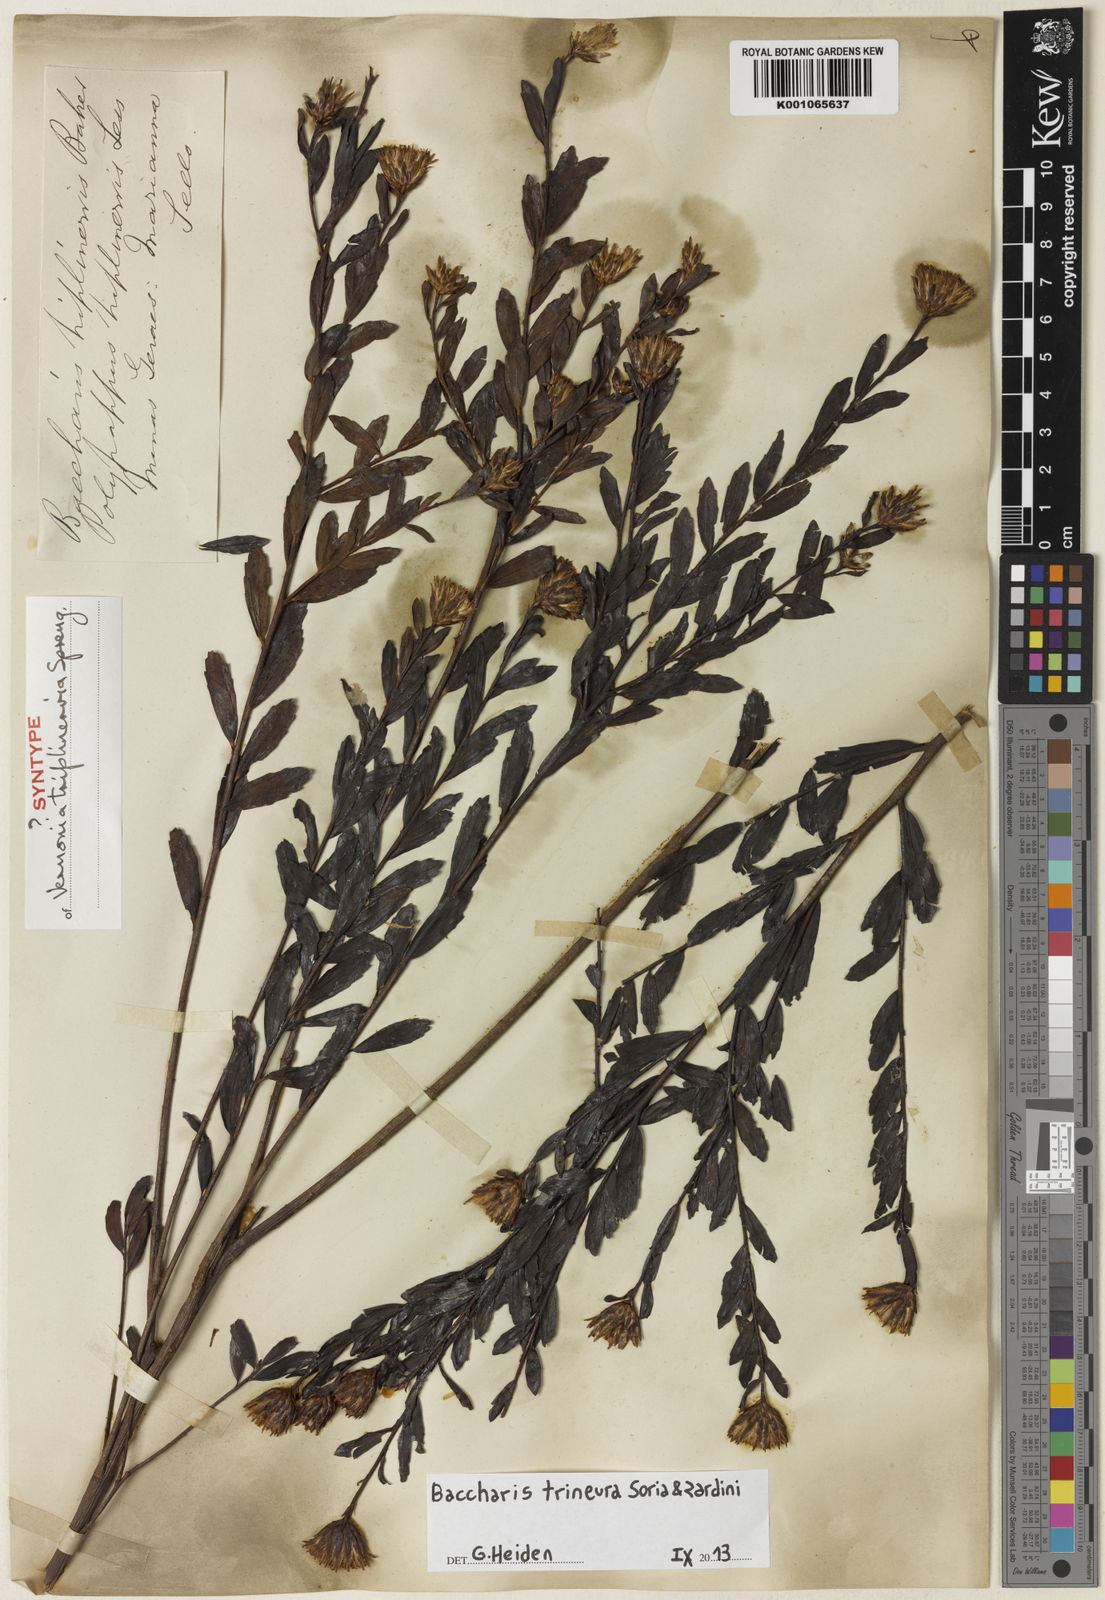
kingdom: Plantae
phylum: Tracheophyta
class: Magnoliopsida
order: Asterales
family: Asteraceae
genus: Baccharis
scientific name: Baccharis trineura
